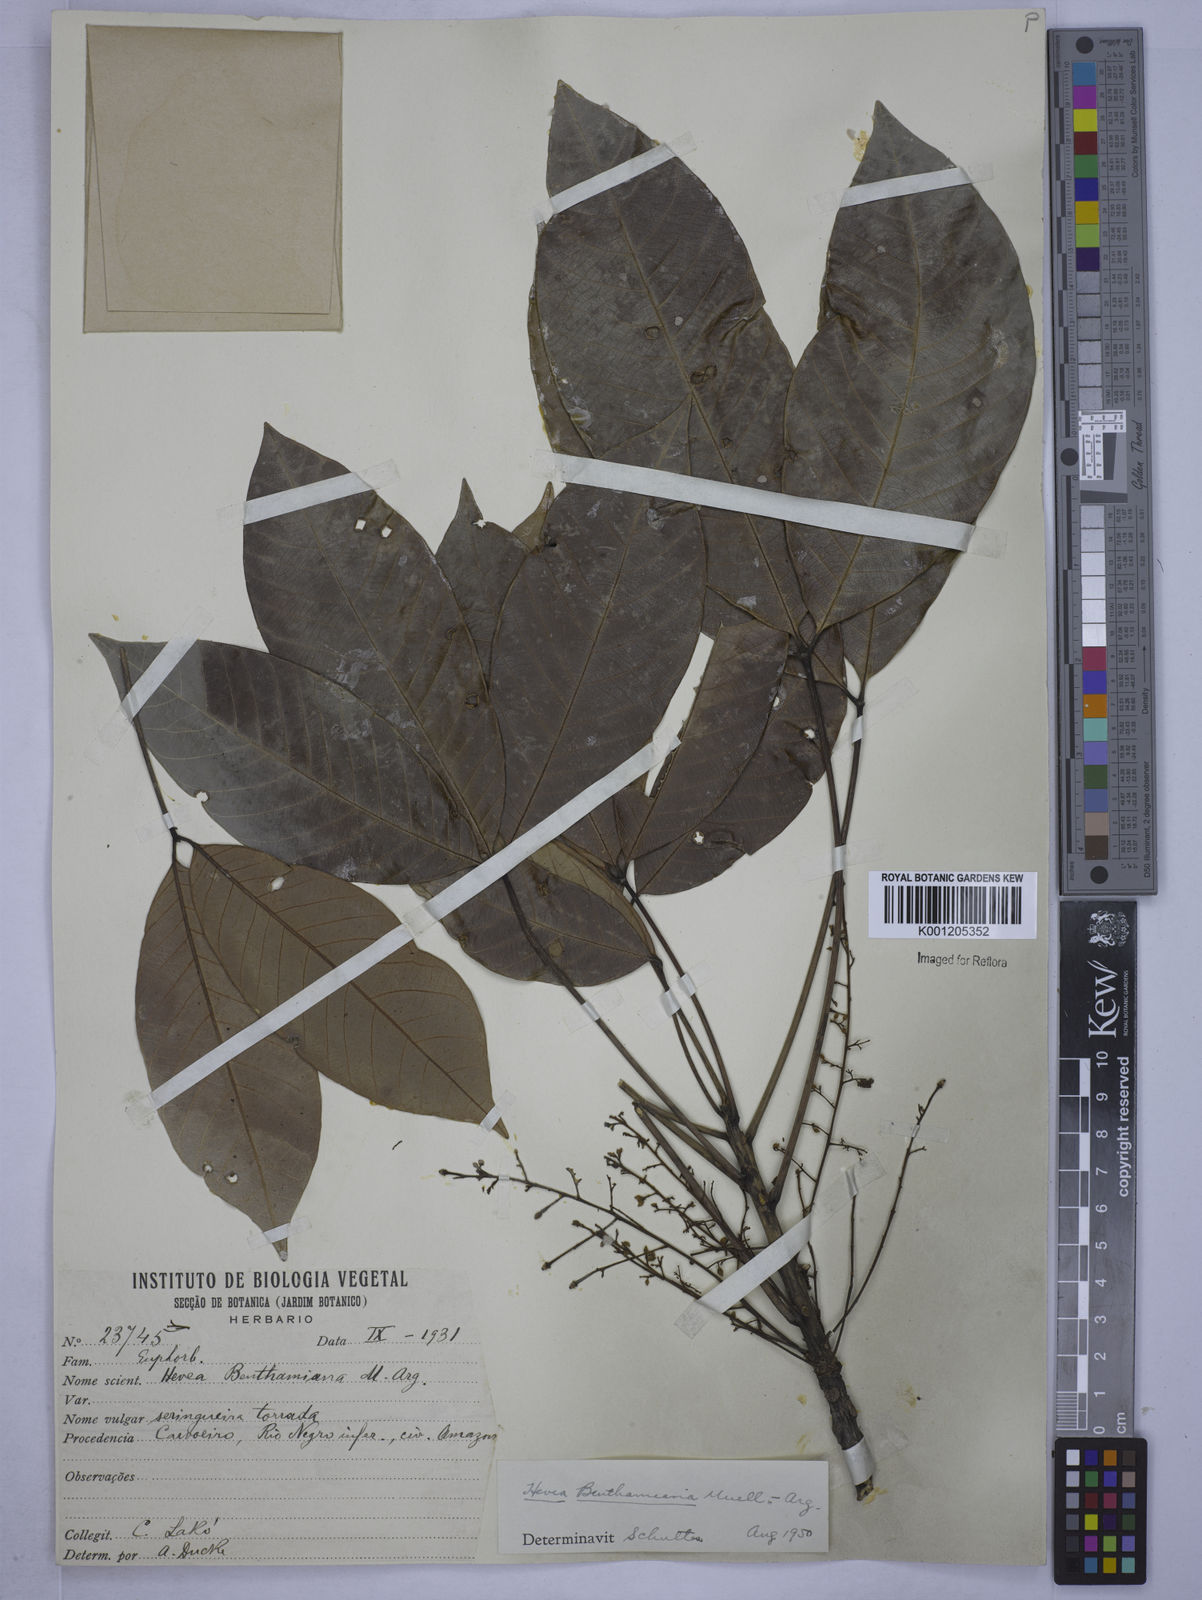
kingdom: Plantae
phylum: Tracheophyta
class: Magnoliopsida
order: Malpighiales
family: Euphorbiaceae
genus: Hevea
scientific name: Hevea
